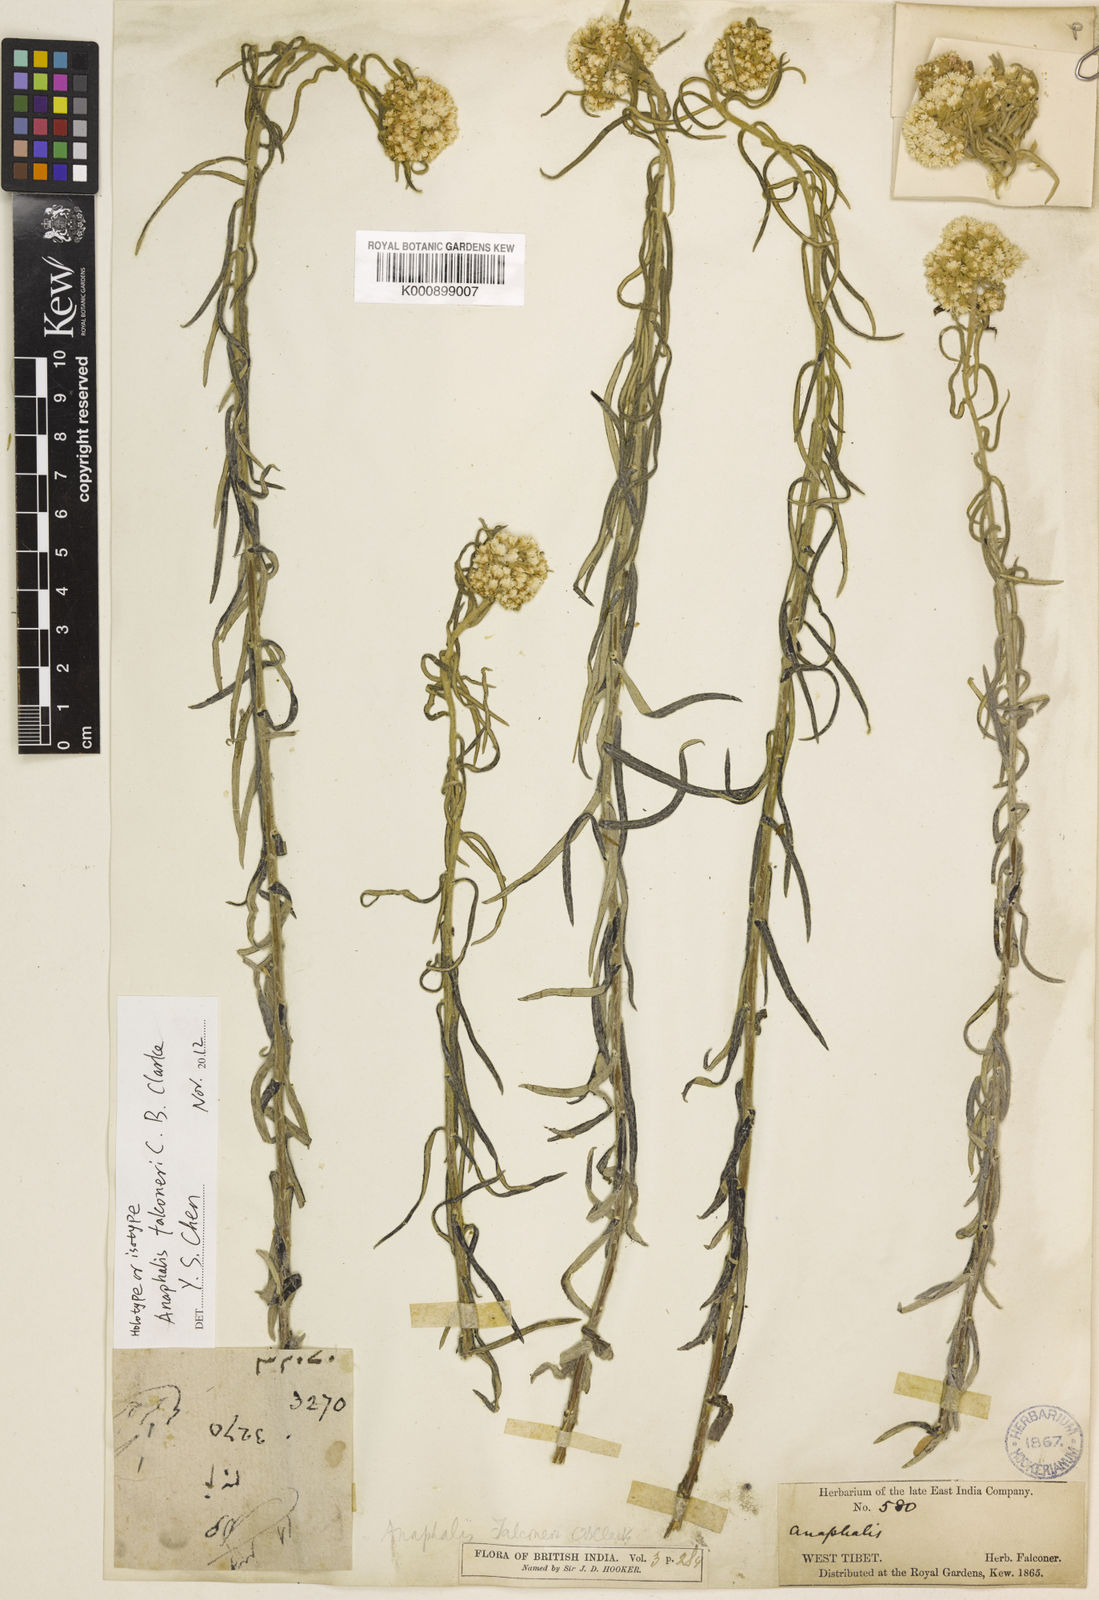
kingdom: Plantae
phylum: Tracheophyta
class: Magnoliopsida
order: Asterales
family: Asteraceae
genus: Anaphalis
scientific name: Anaphalis contorta
